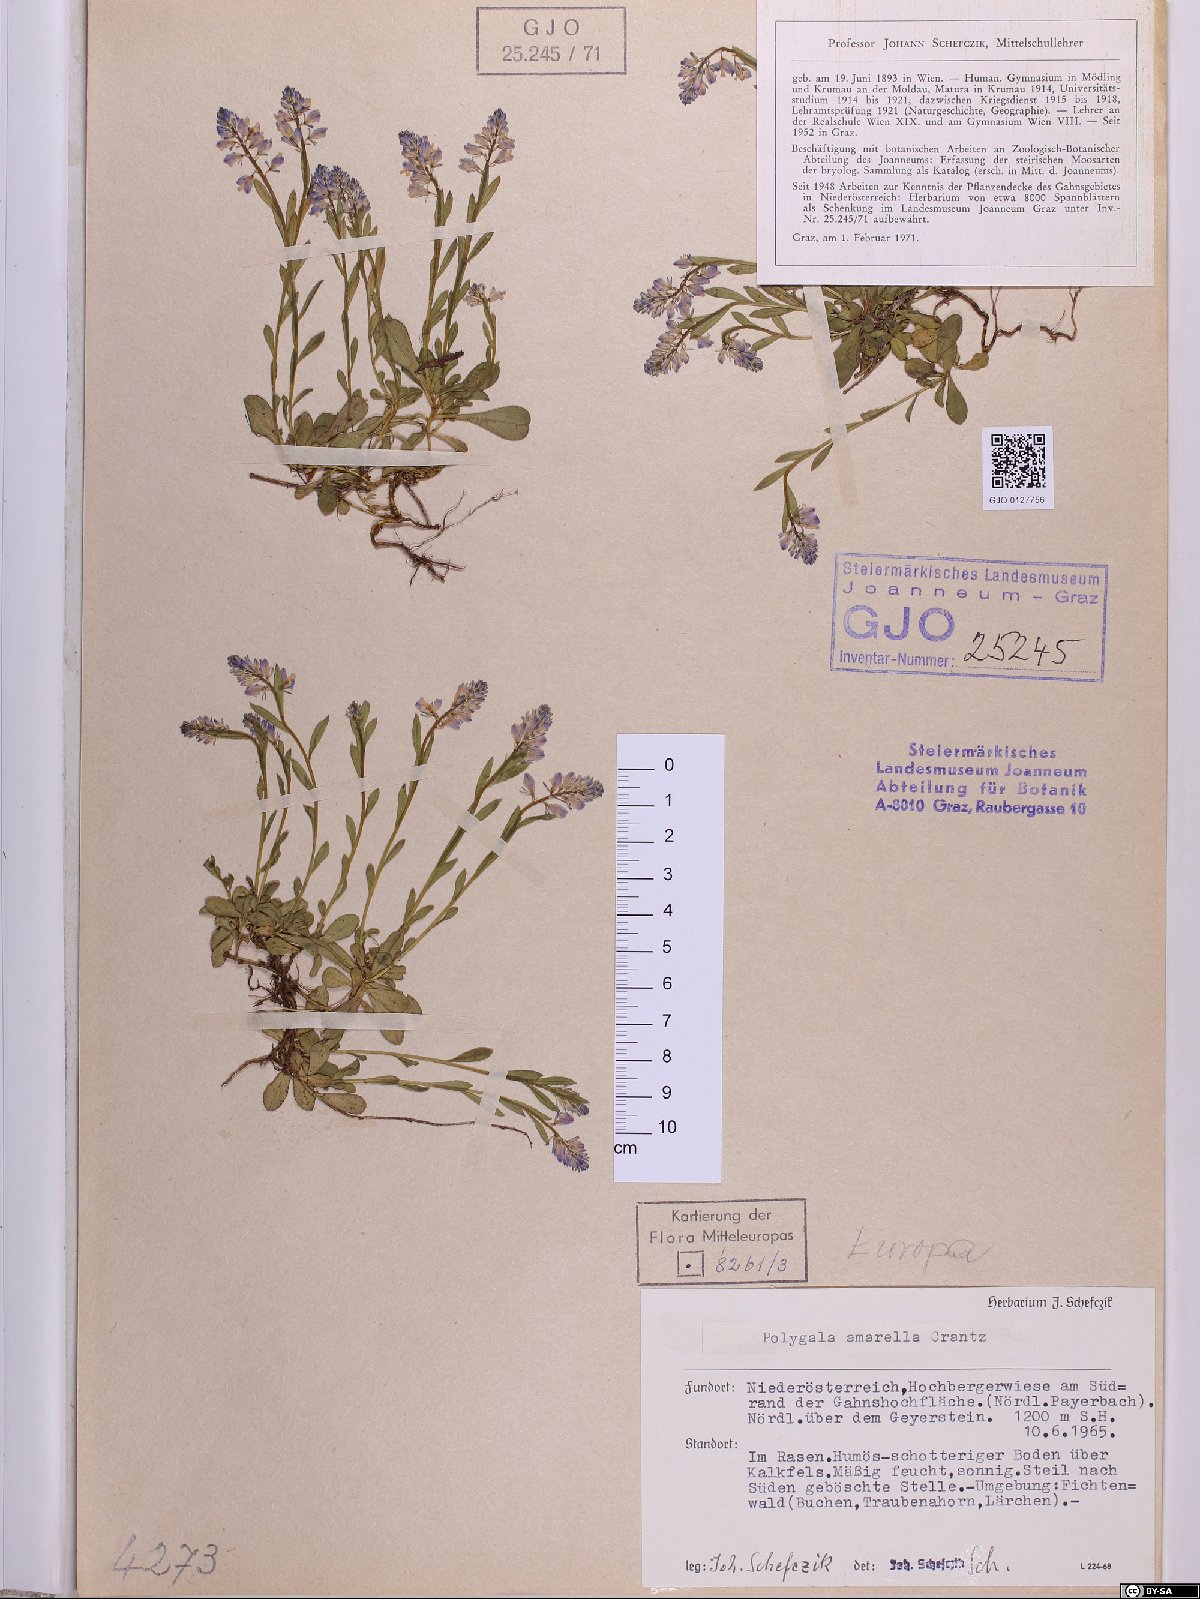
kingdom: Plantae
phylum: Tracheophyta
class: Magnoliopsida
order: Fabales
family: Polygalaceae
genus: Polygala
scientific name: Polygala amarella
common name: Dwarf milkwort
